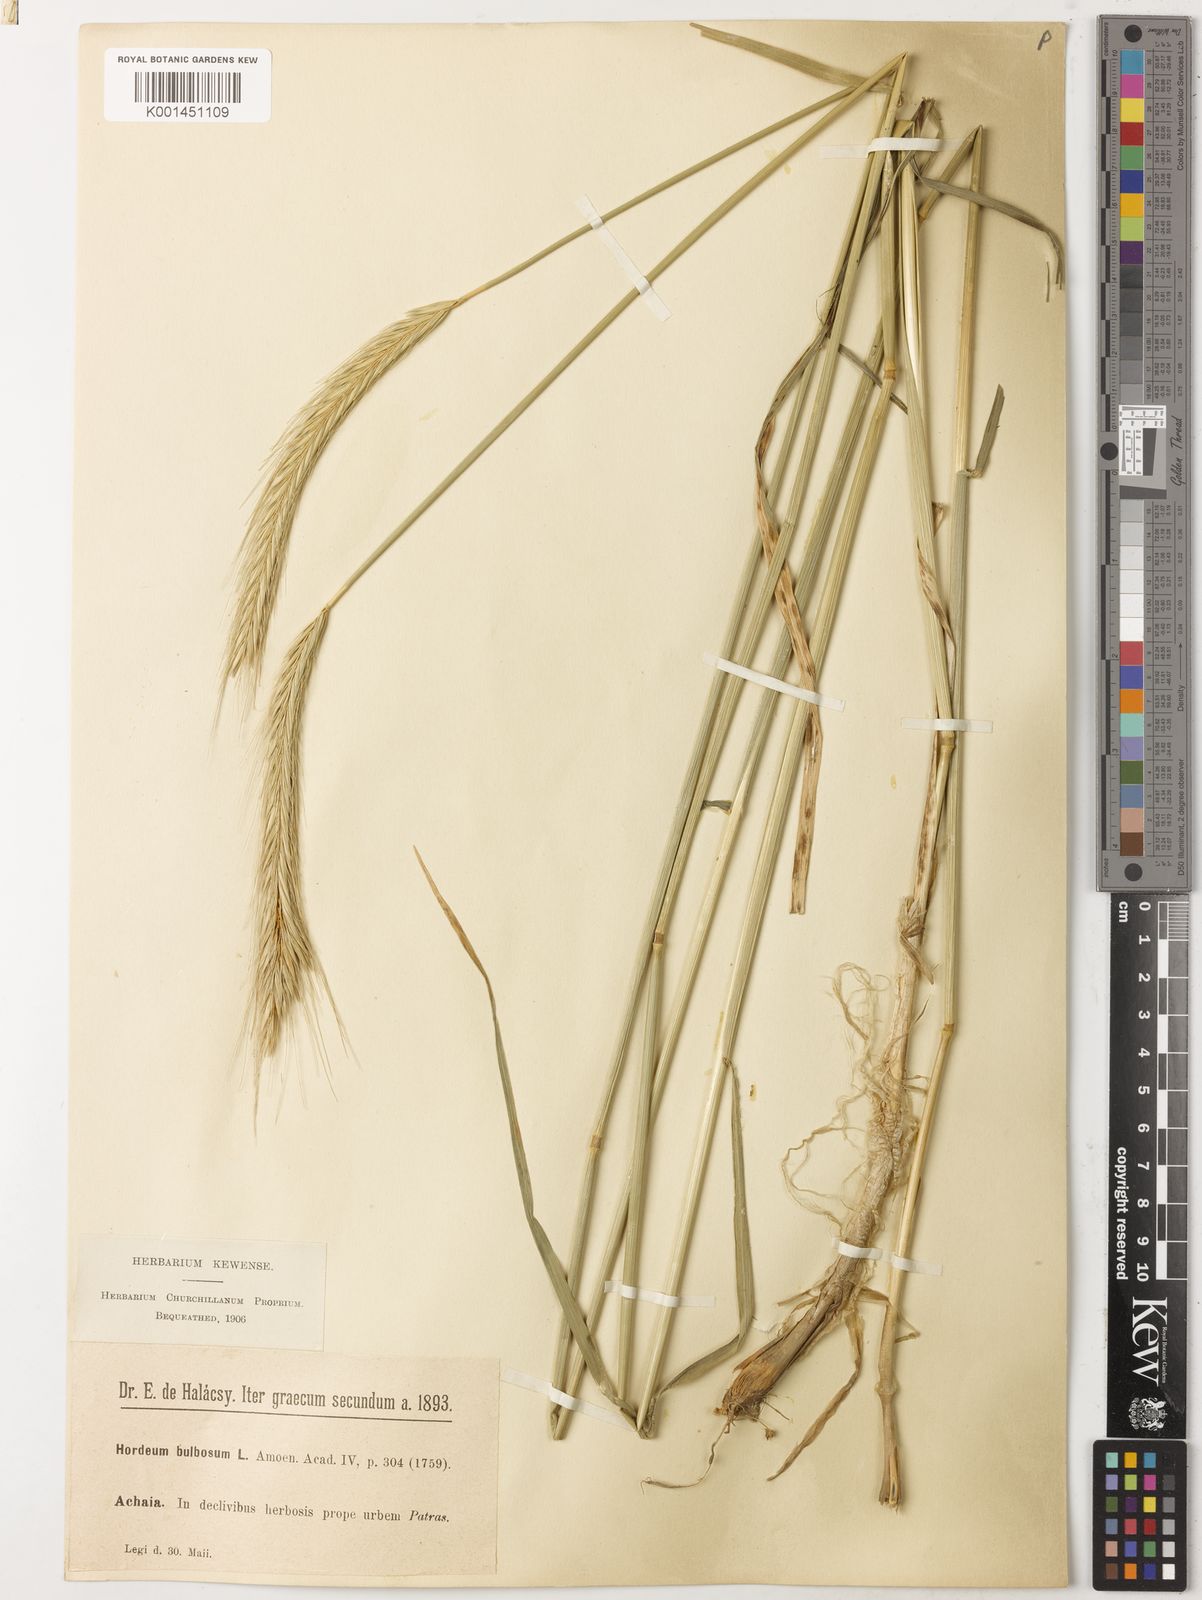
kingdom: Plantae
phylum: Tracheophyta
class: Liliopsida
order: Poales
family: Poaceae
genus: Hordeum
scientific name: Hordeum bulbosum
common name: Bulbous barley
